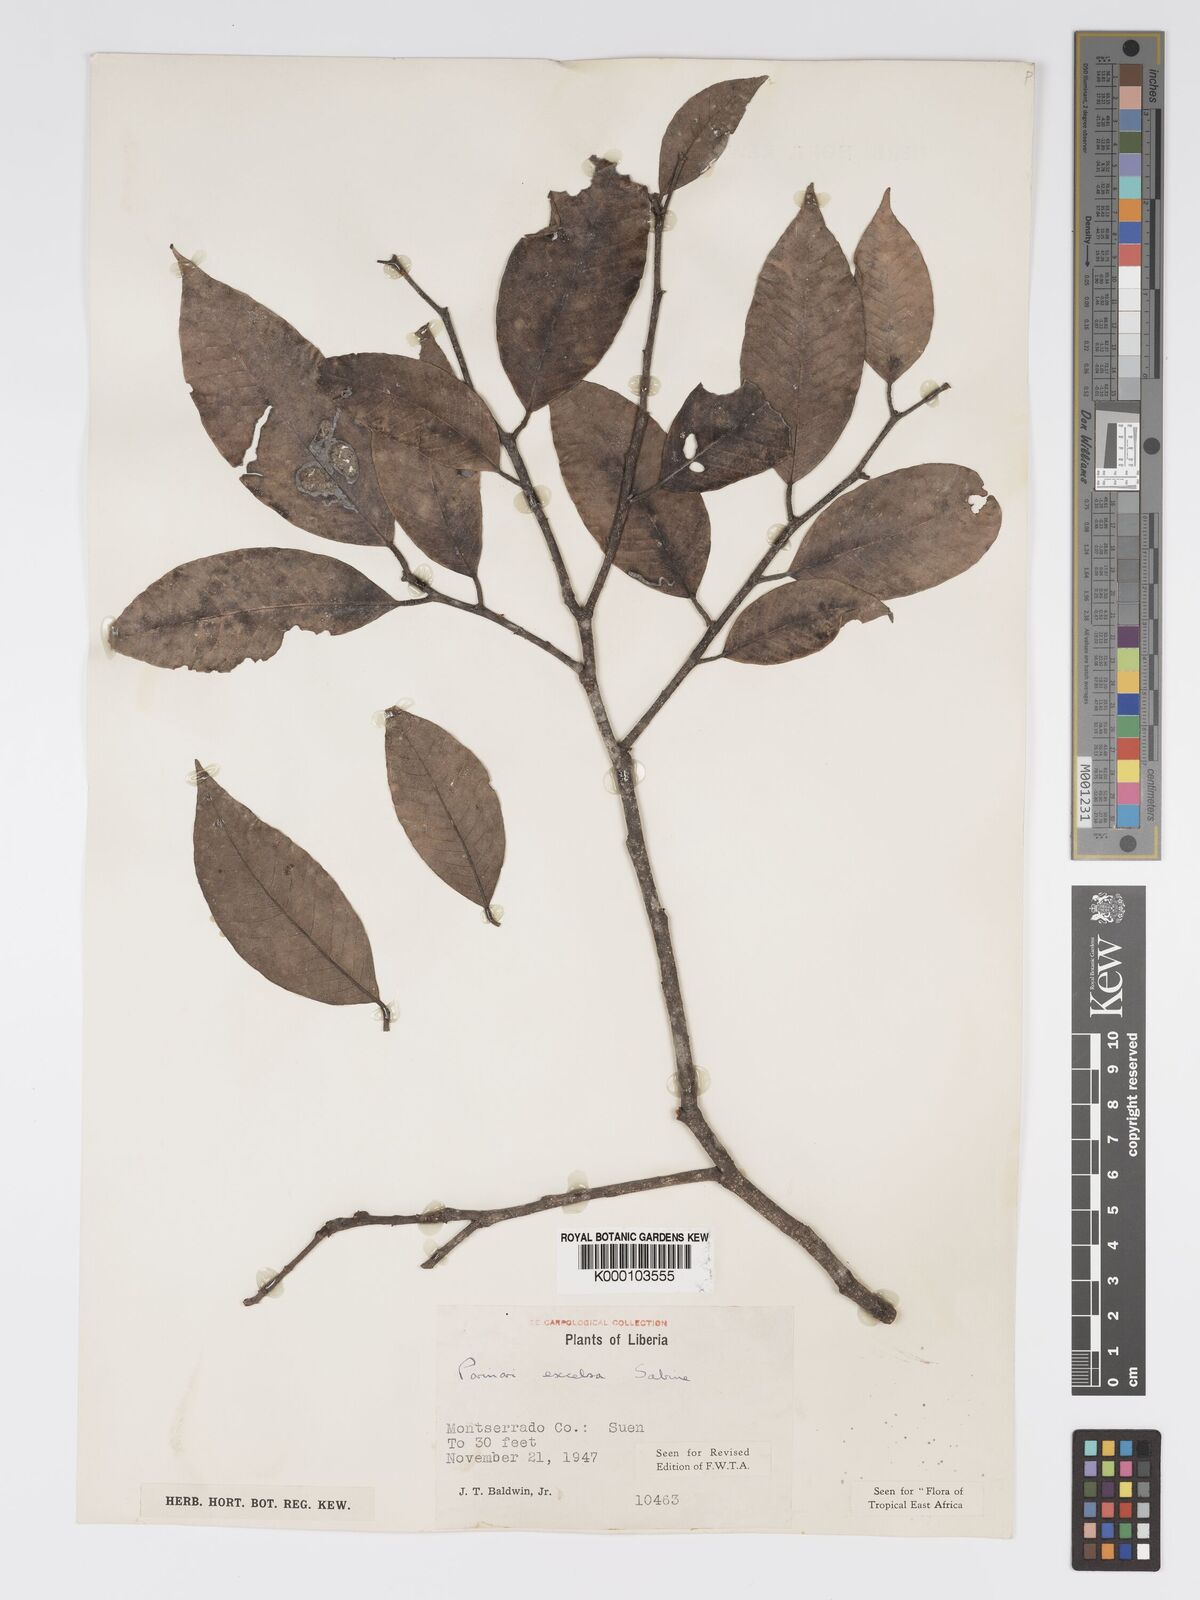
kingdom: Plantae
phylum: Tracheophyta
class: Magnoliopsida
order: Malpighiales
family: Chrysobalanaceae
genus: Parinari
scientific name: Parinari excelsa
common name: Guinea-plum
